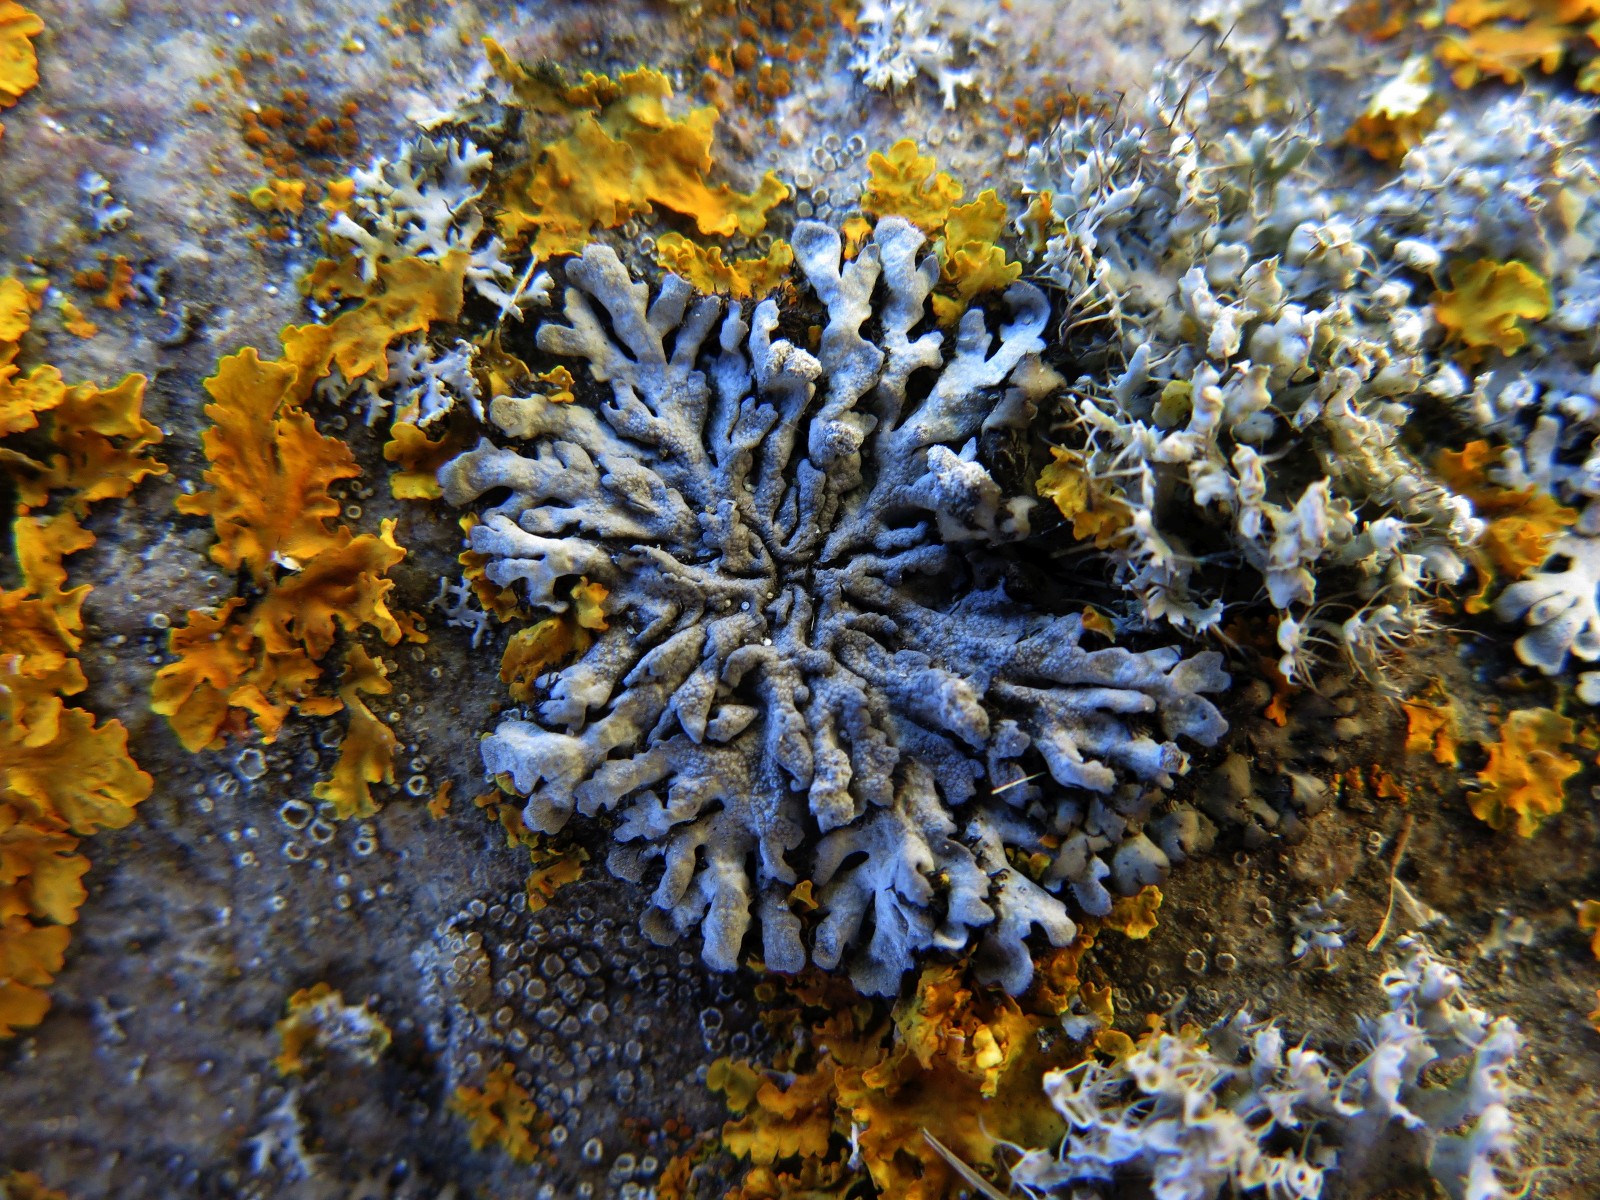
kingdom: Fungi
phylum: Ascomycota
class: Lecanoromycetes
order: Caliciales
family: Physciaceae
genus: Physcia
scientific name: Physcia caesia
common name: blågrå rosetlav
